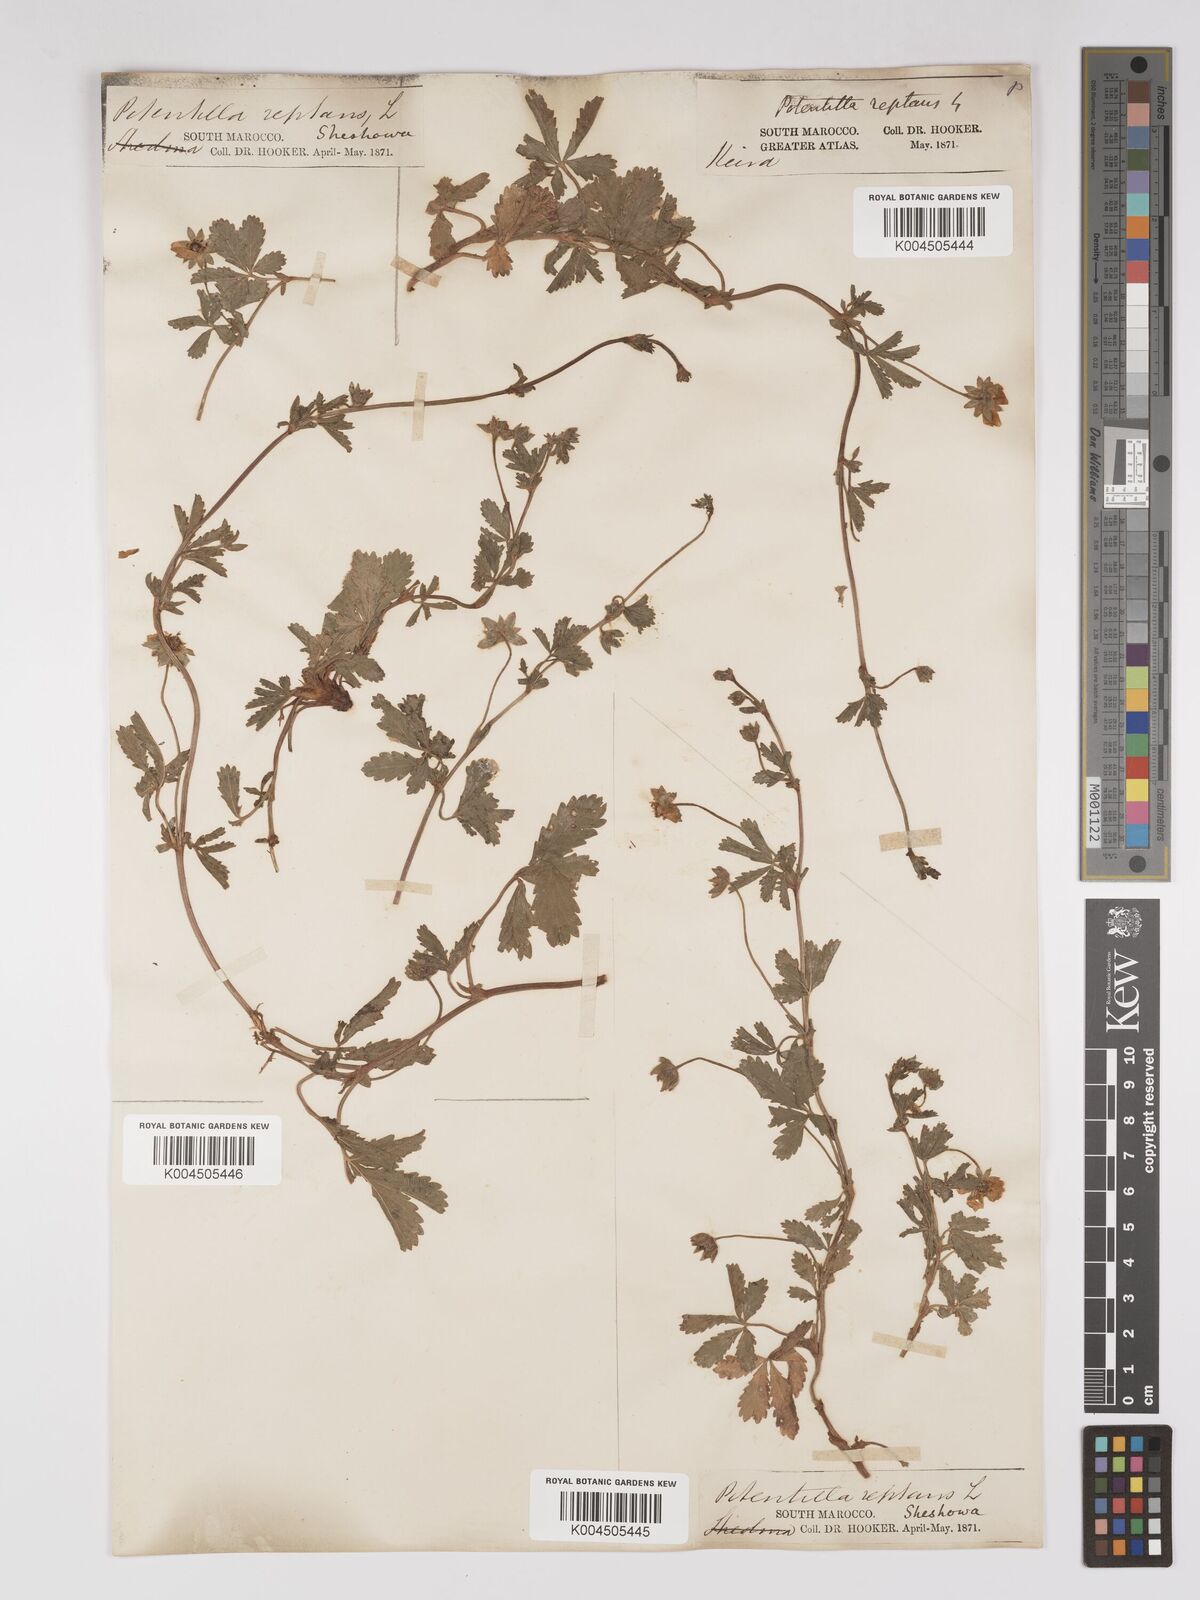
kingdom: Plantae
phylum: Tracheophyta
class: Magnoliopsida
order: Rosales
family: Rosaceae
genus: Potentilla
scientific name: Potentilla reptans
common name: Creeping cinquefoil
